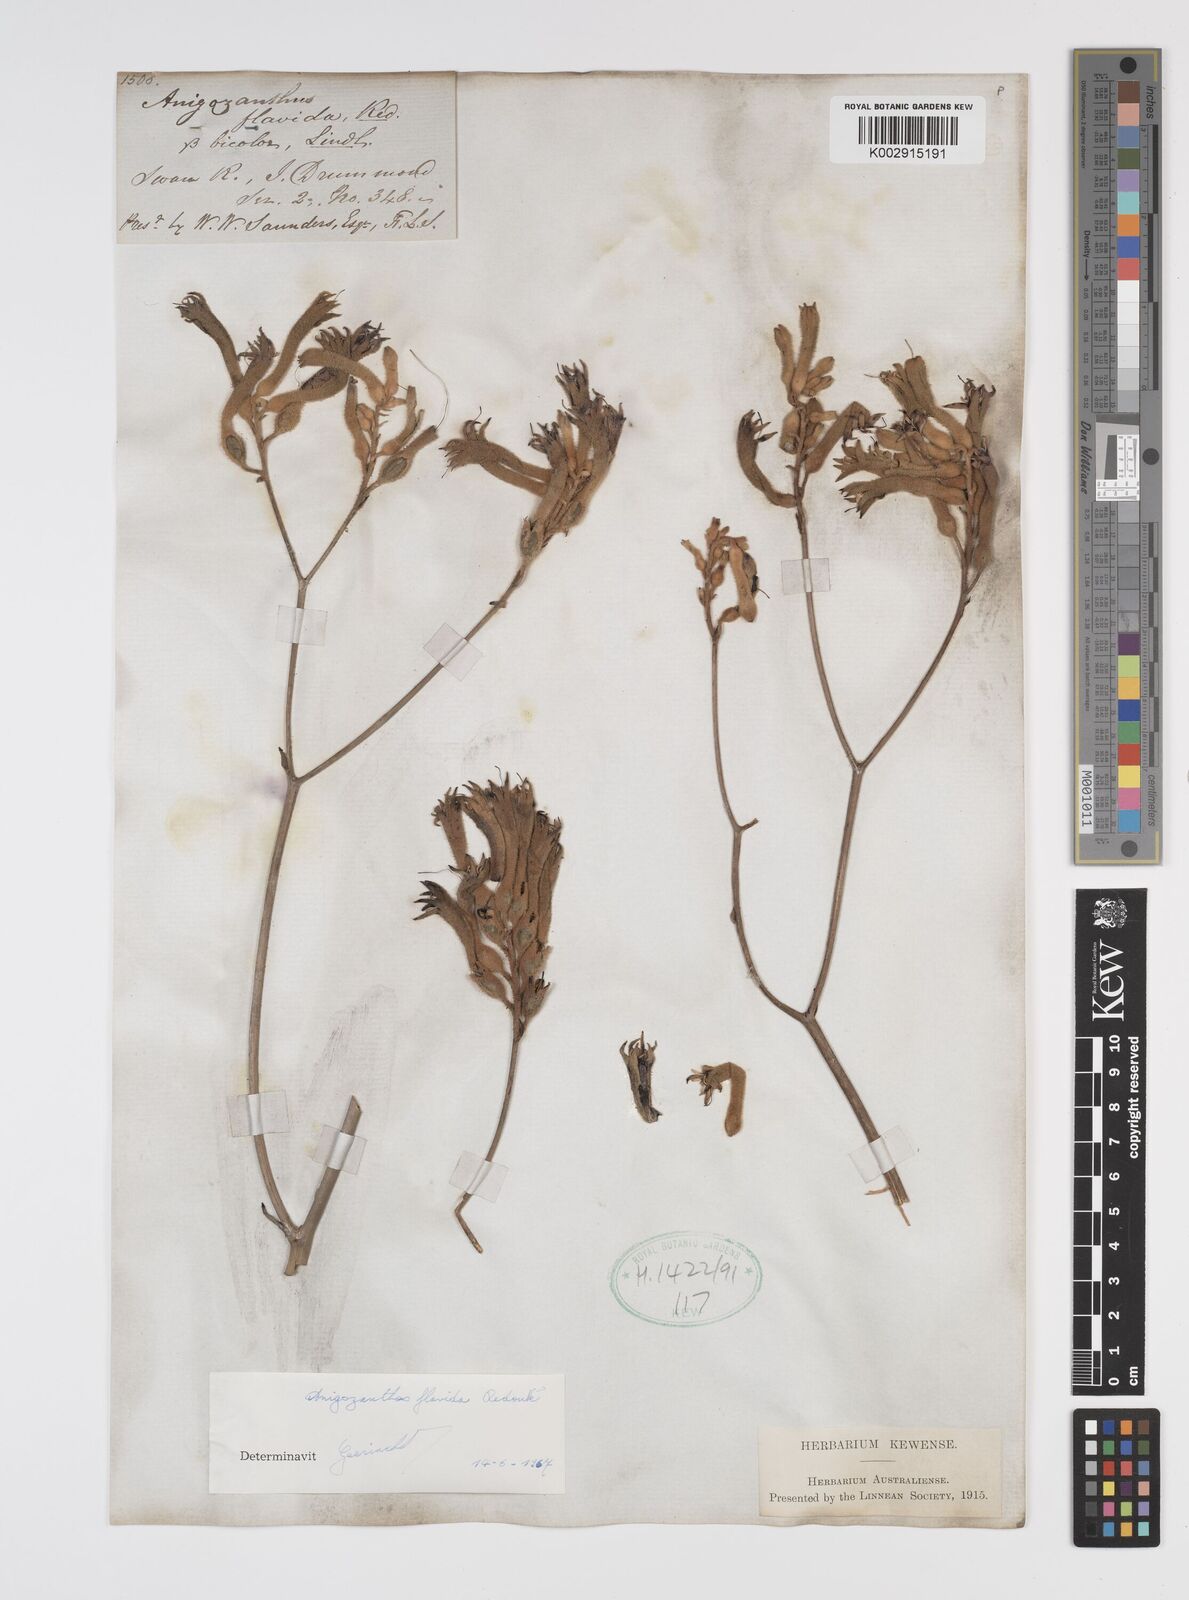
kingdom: Plantae
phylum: Tracheophyta
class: Liliopsida
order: Commelinales
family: Haemodoraceae
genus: Anigozanthos
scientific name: Anigozanthos flavidus
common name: Evergreen kangaroo-paw
